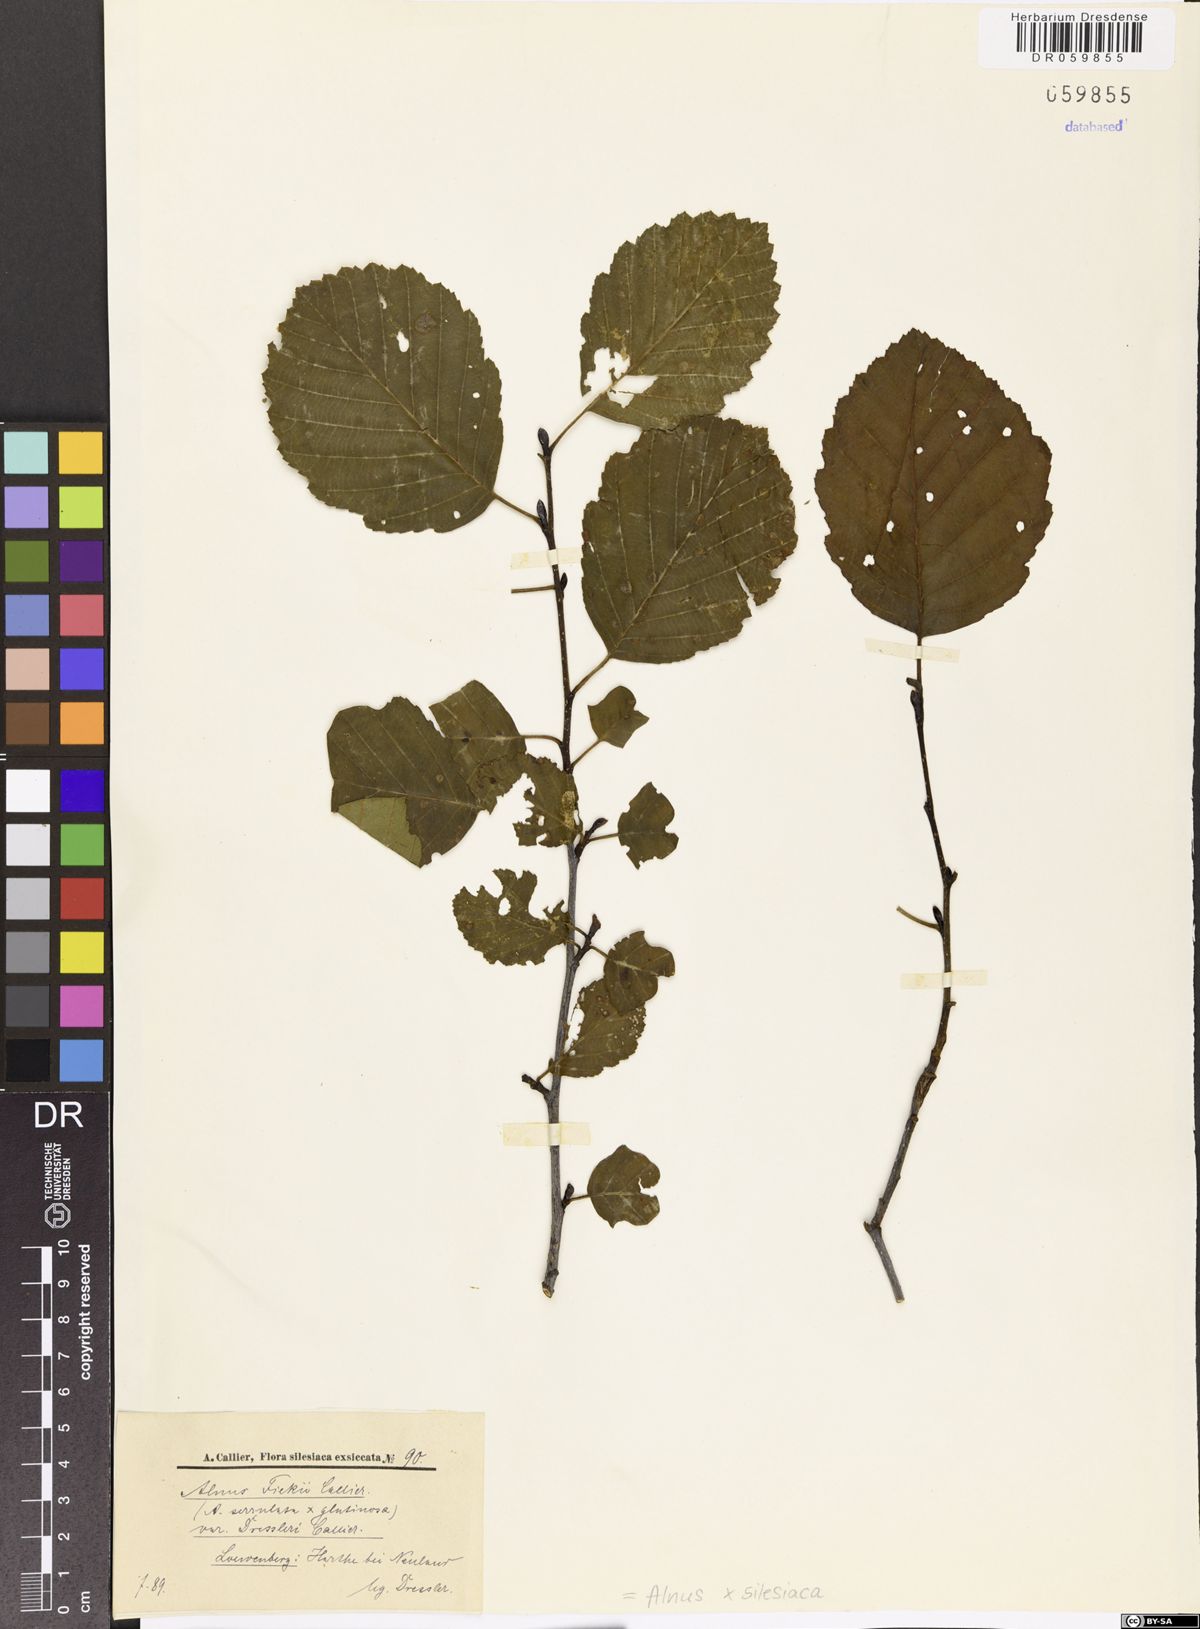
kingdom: Plantae
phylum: Tracheophyta
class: Magnoliopsida
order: Fagales
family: Betulaceae
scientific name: Betulaceae
